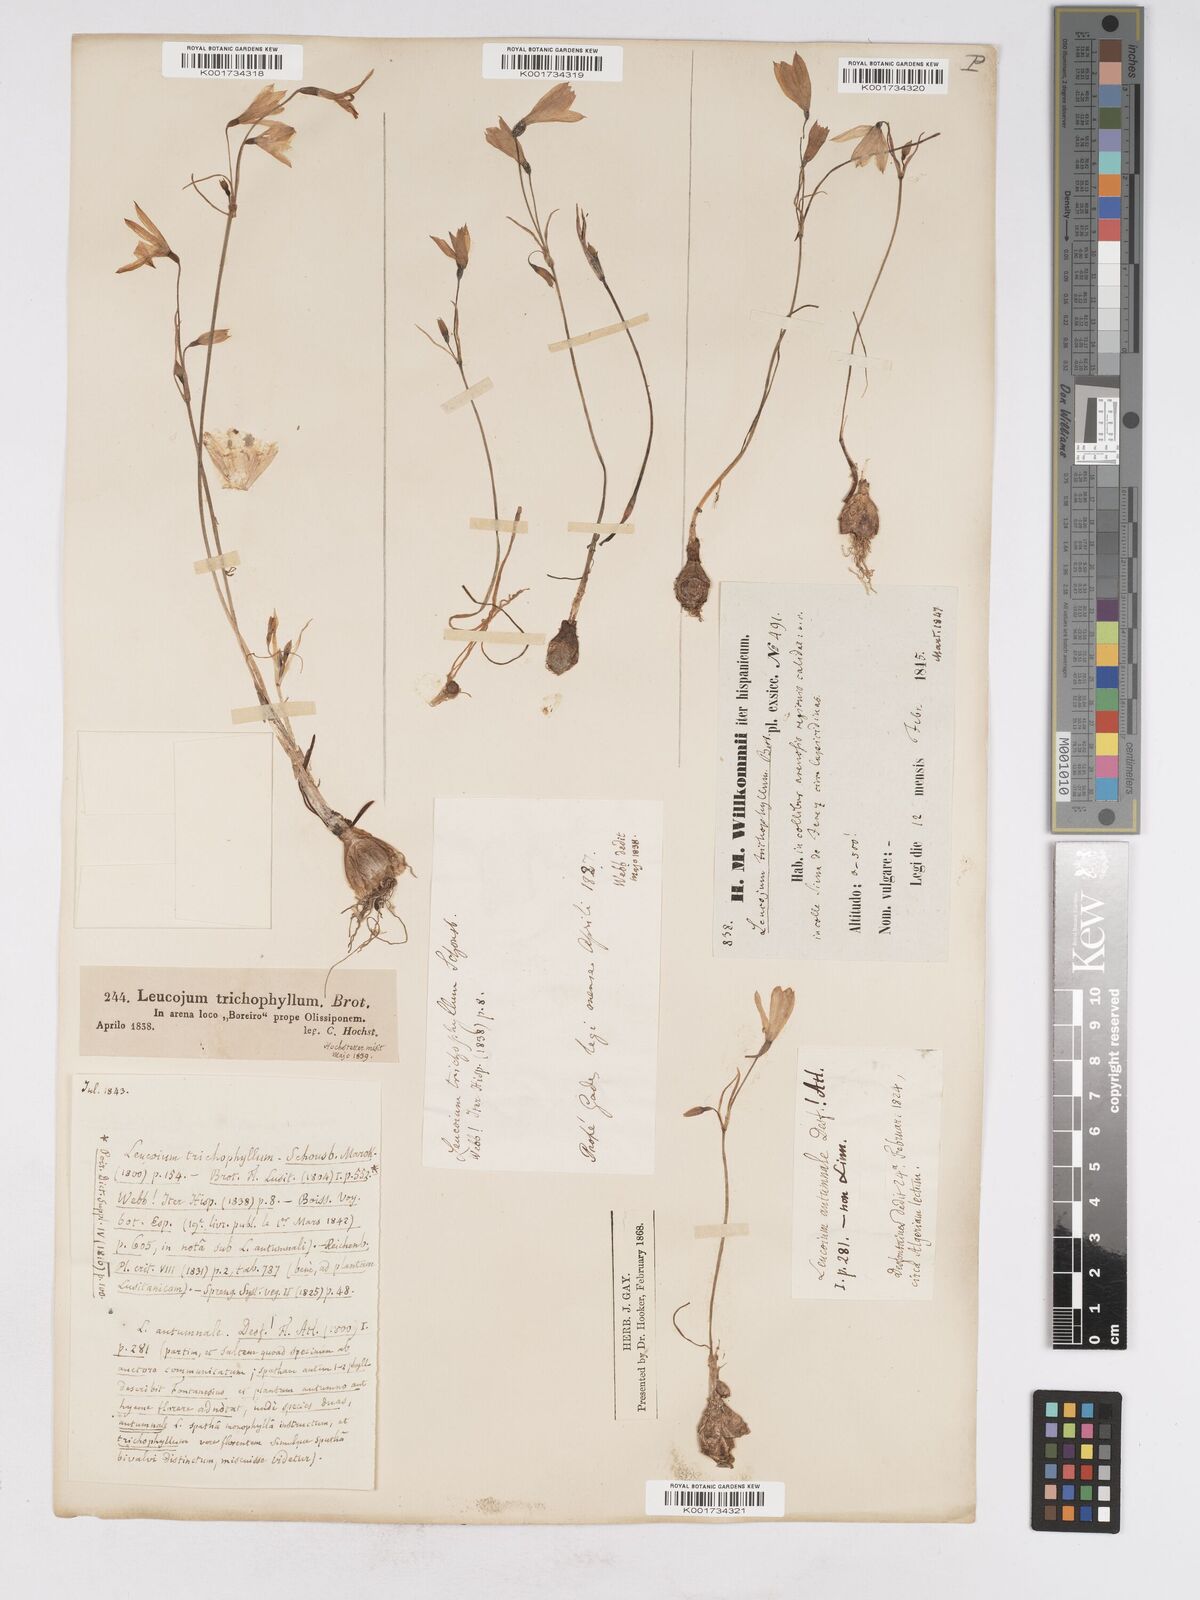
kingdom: Plantae
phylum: Tracheophyta
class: Liliopsida
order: Asparagales
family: Amaryllidaceae
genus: Acis
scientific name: Acis trichophylla
